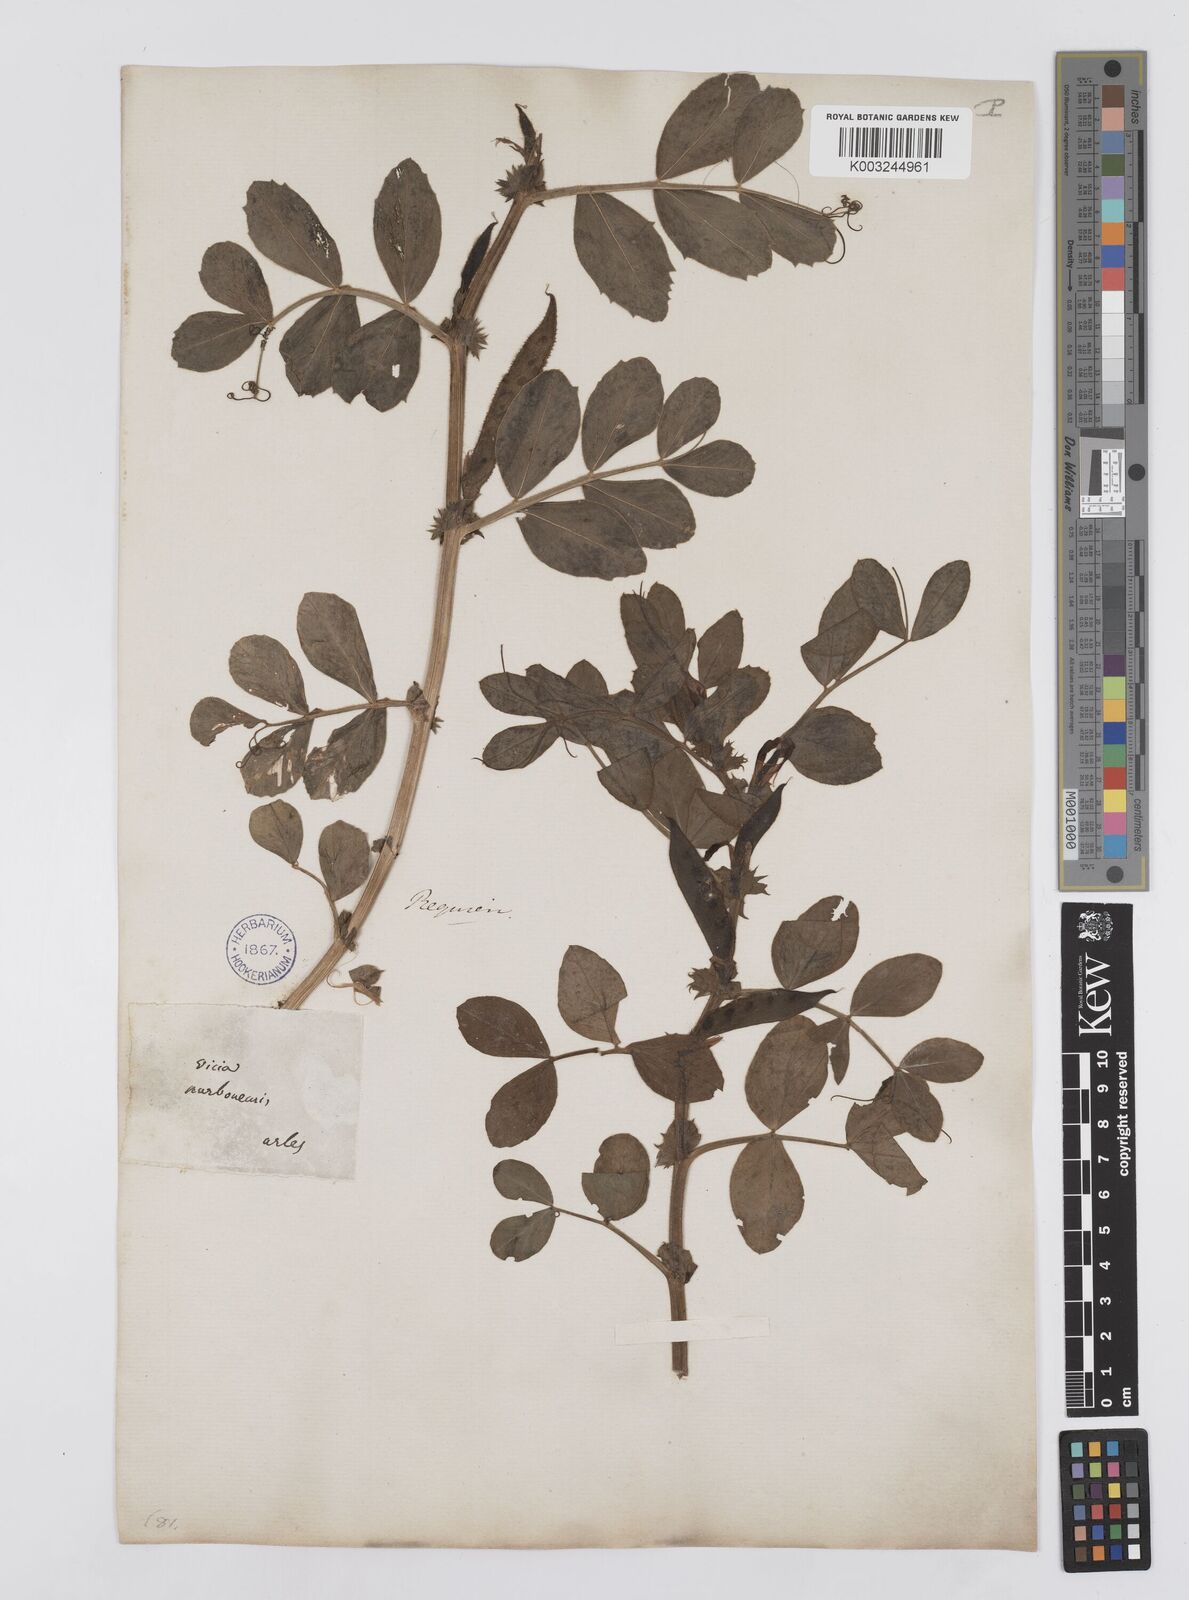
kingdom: Plantae
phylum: Tracheophyta
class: Magnoliopsida
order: Fabales
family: Fabaceae
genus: Vicia
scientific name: Vicia serratifolia
